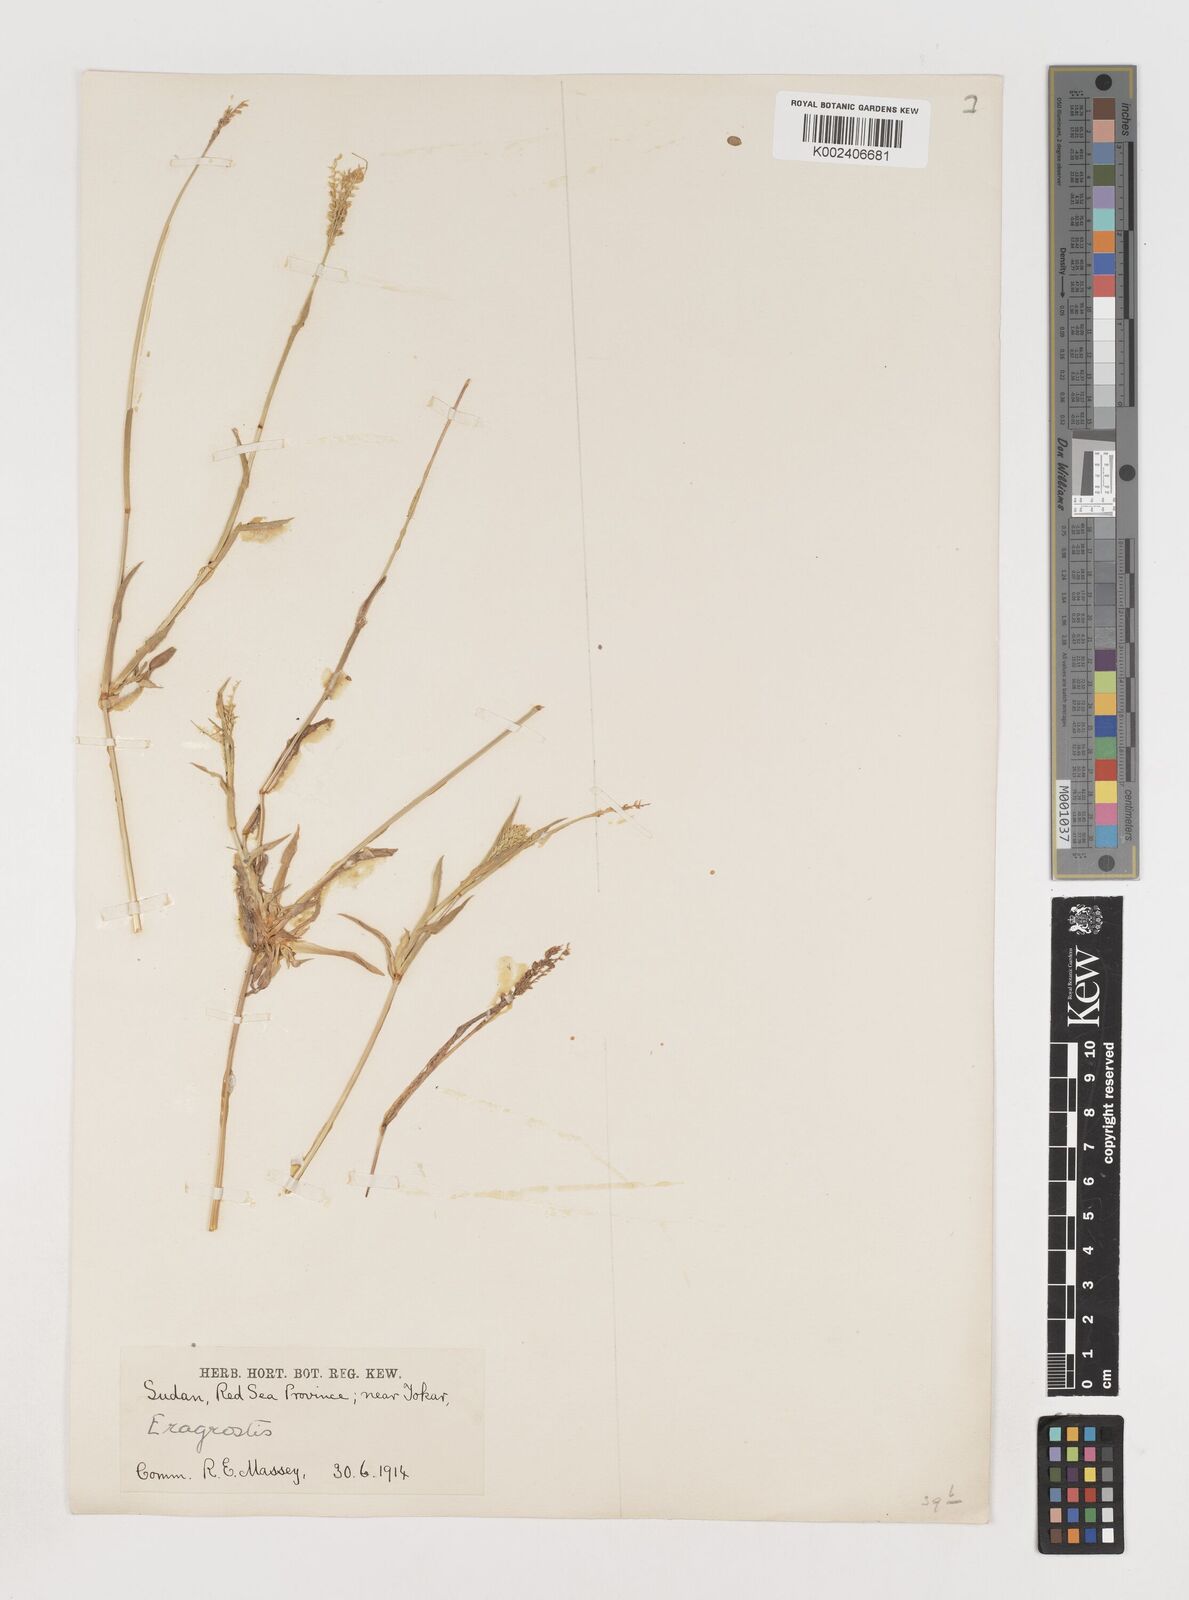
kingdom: Plantae
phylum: Tracheophyta
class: Liliopsida
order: Poales
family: Poaceae
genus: Coelachyrum
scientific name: Coelachyrum brevifolium
